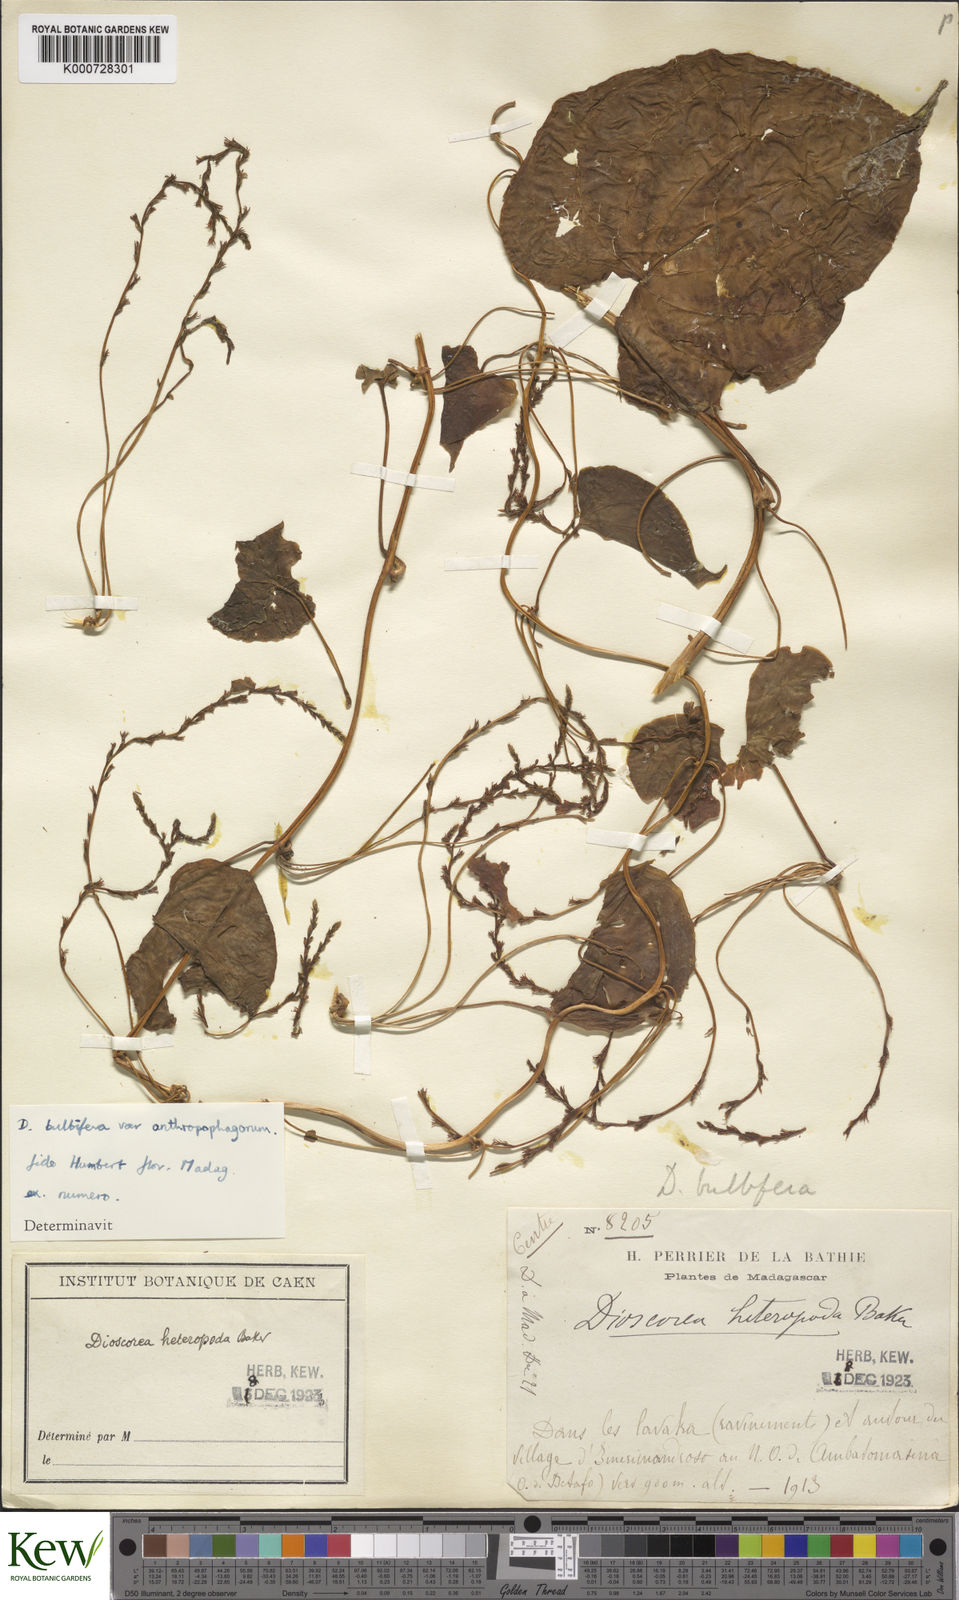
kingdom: Plantae
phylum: Tracheophyta
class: Liliopsida
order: Dioscoreales
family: Dioscoreaceae
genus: Dioscorea
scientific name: Dioscorea bulbifera
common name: Air yam
